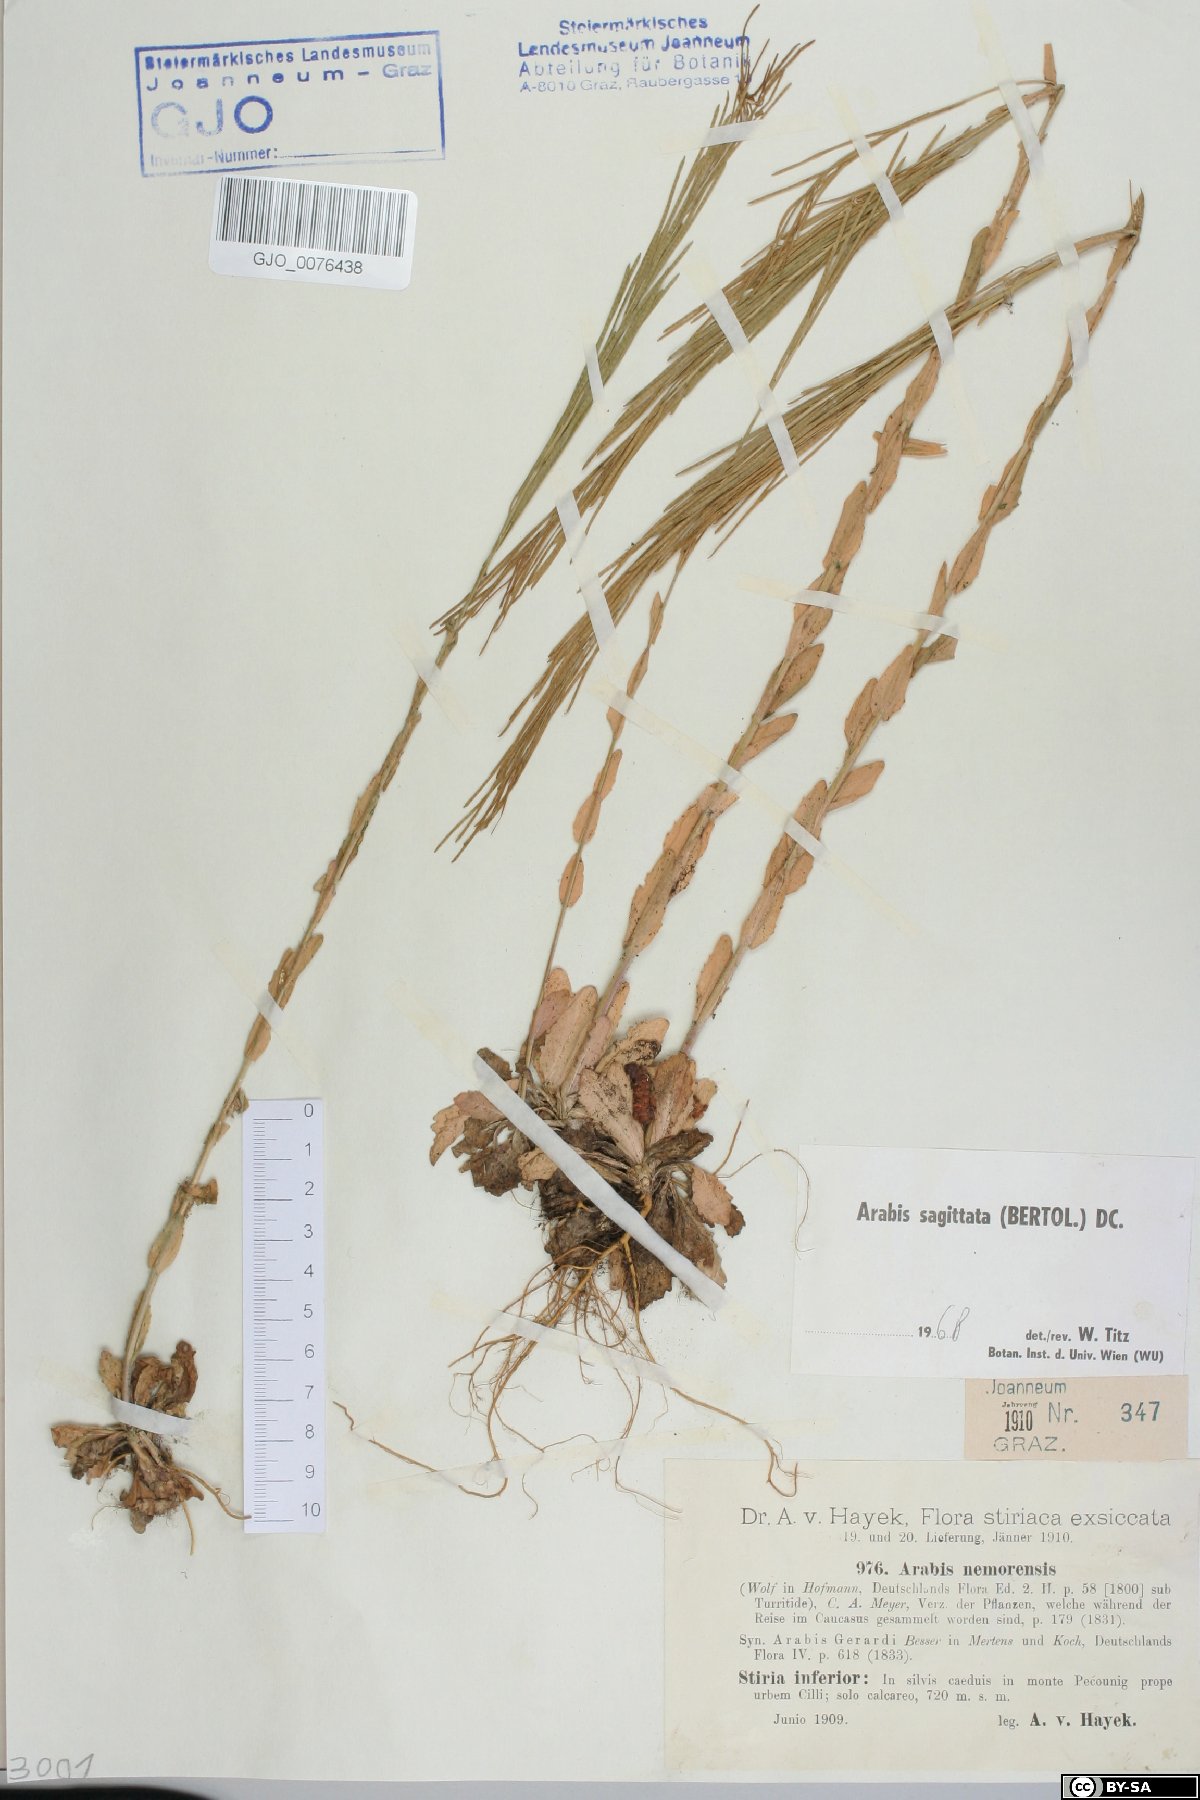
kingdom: Plantae
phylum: Tracheophyta
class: Magnoliopsida
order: Brassicales
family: Brassicaceae
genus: Arabis
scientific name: Arabis sagittata
